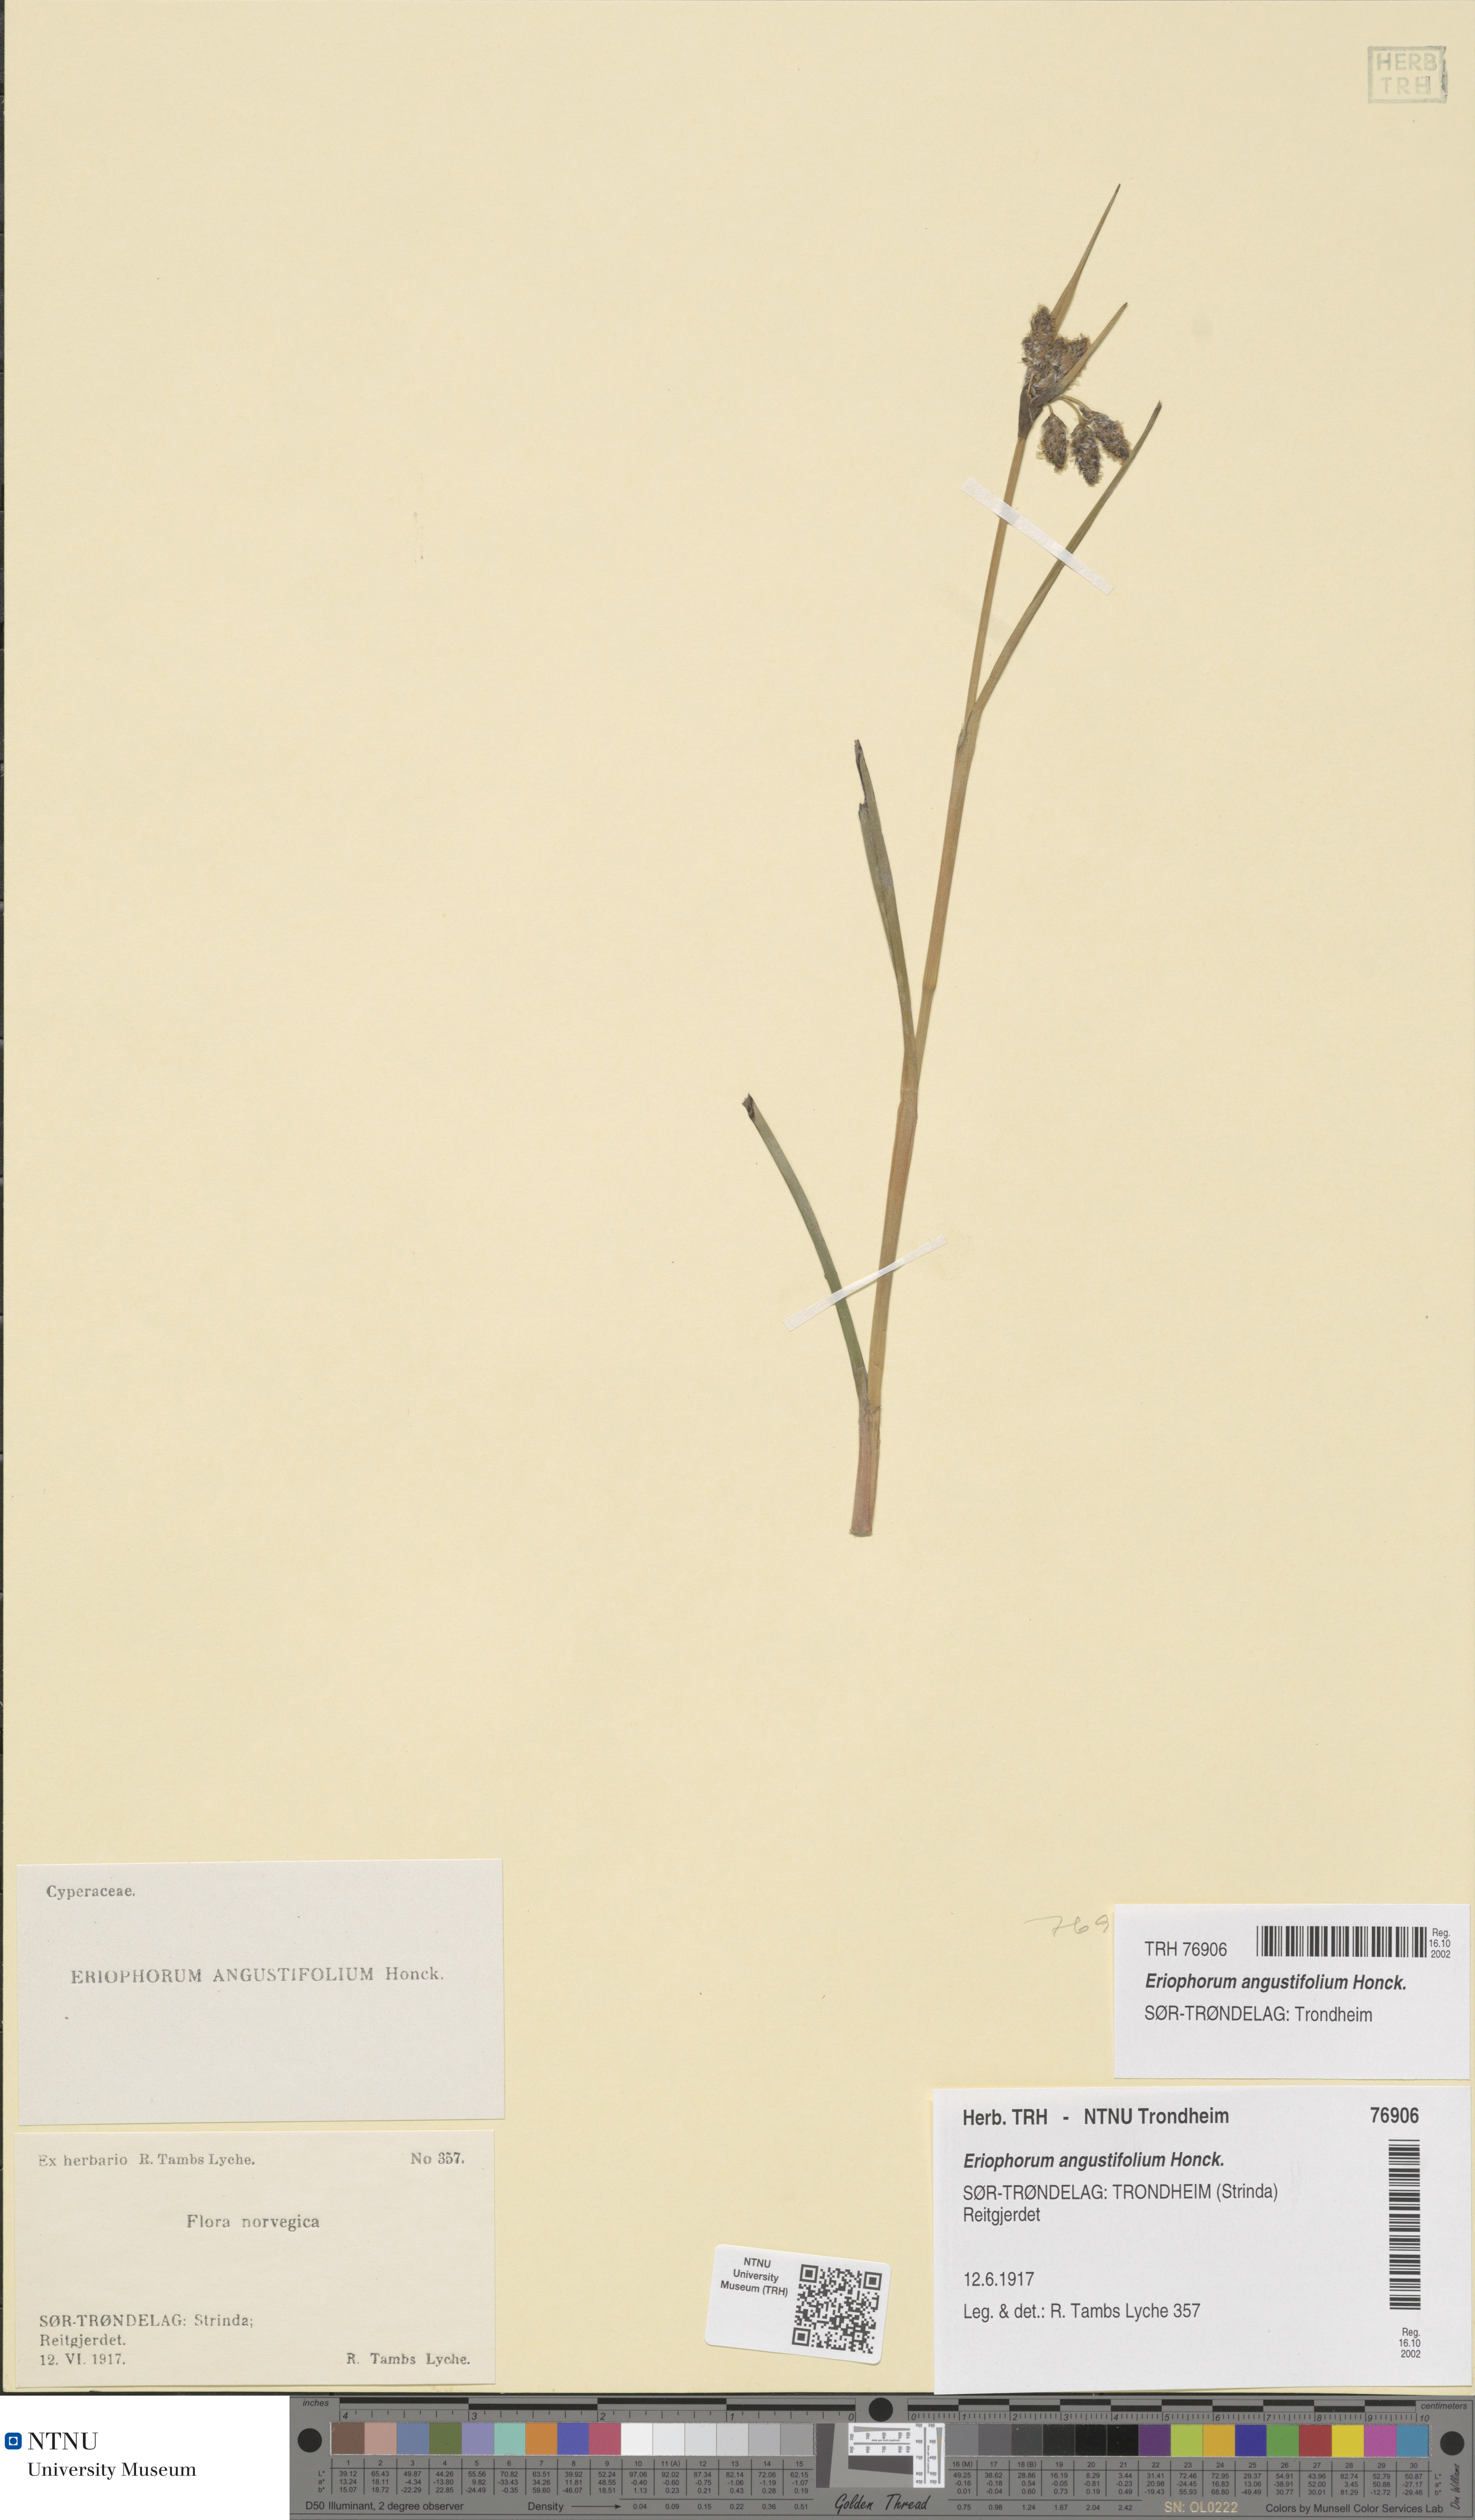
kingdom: Plantae
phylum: Tracheophyta
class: Liliopsida
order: Poales
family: Cyperaceae
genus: Eriophorum
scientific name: Eriophorum angustifolium
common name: Common cottongrass
